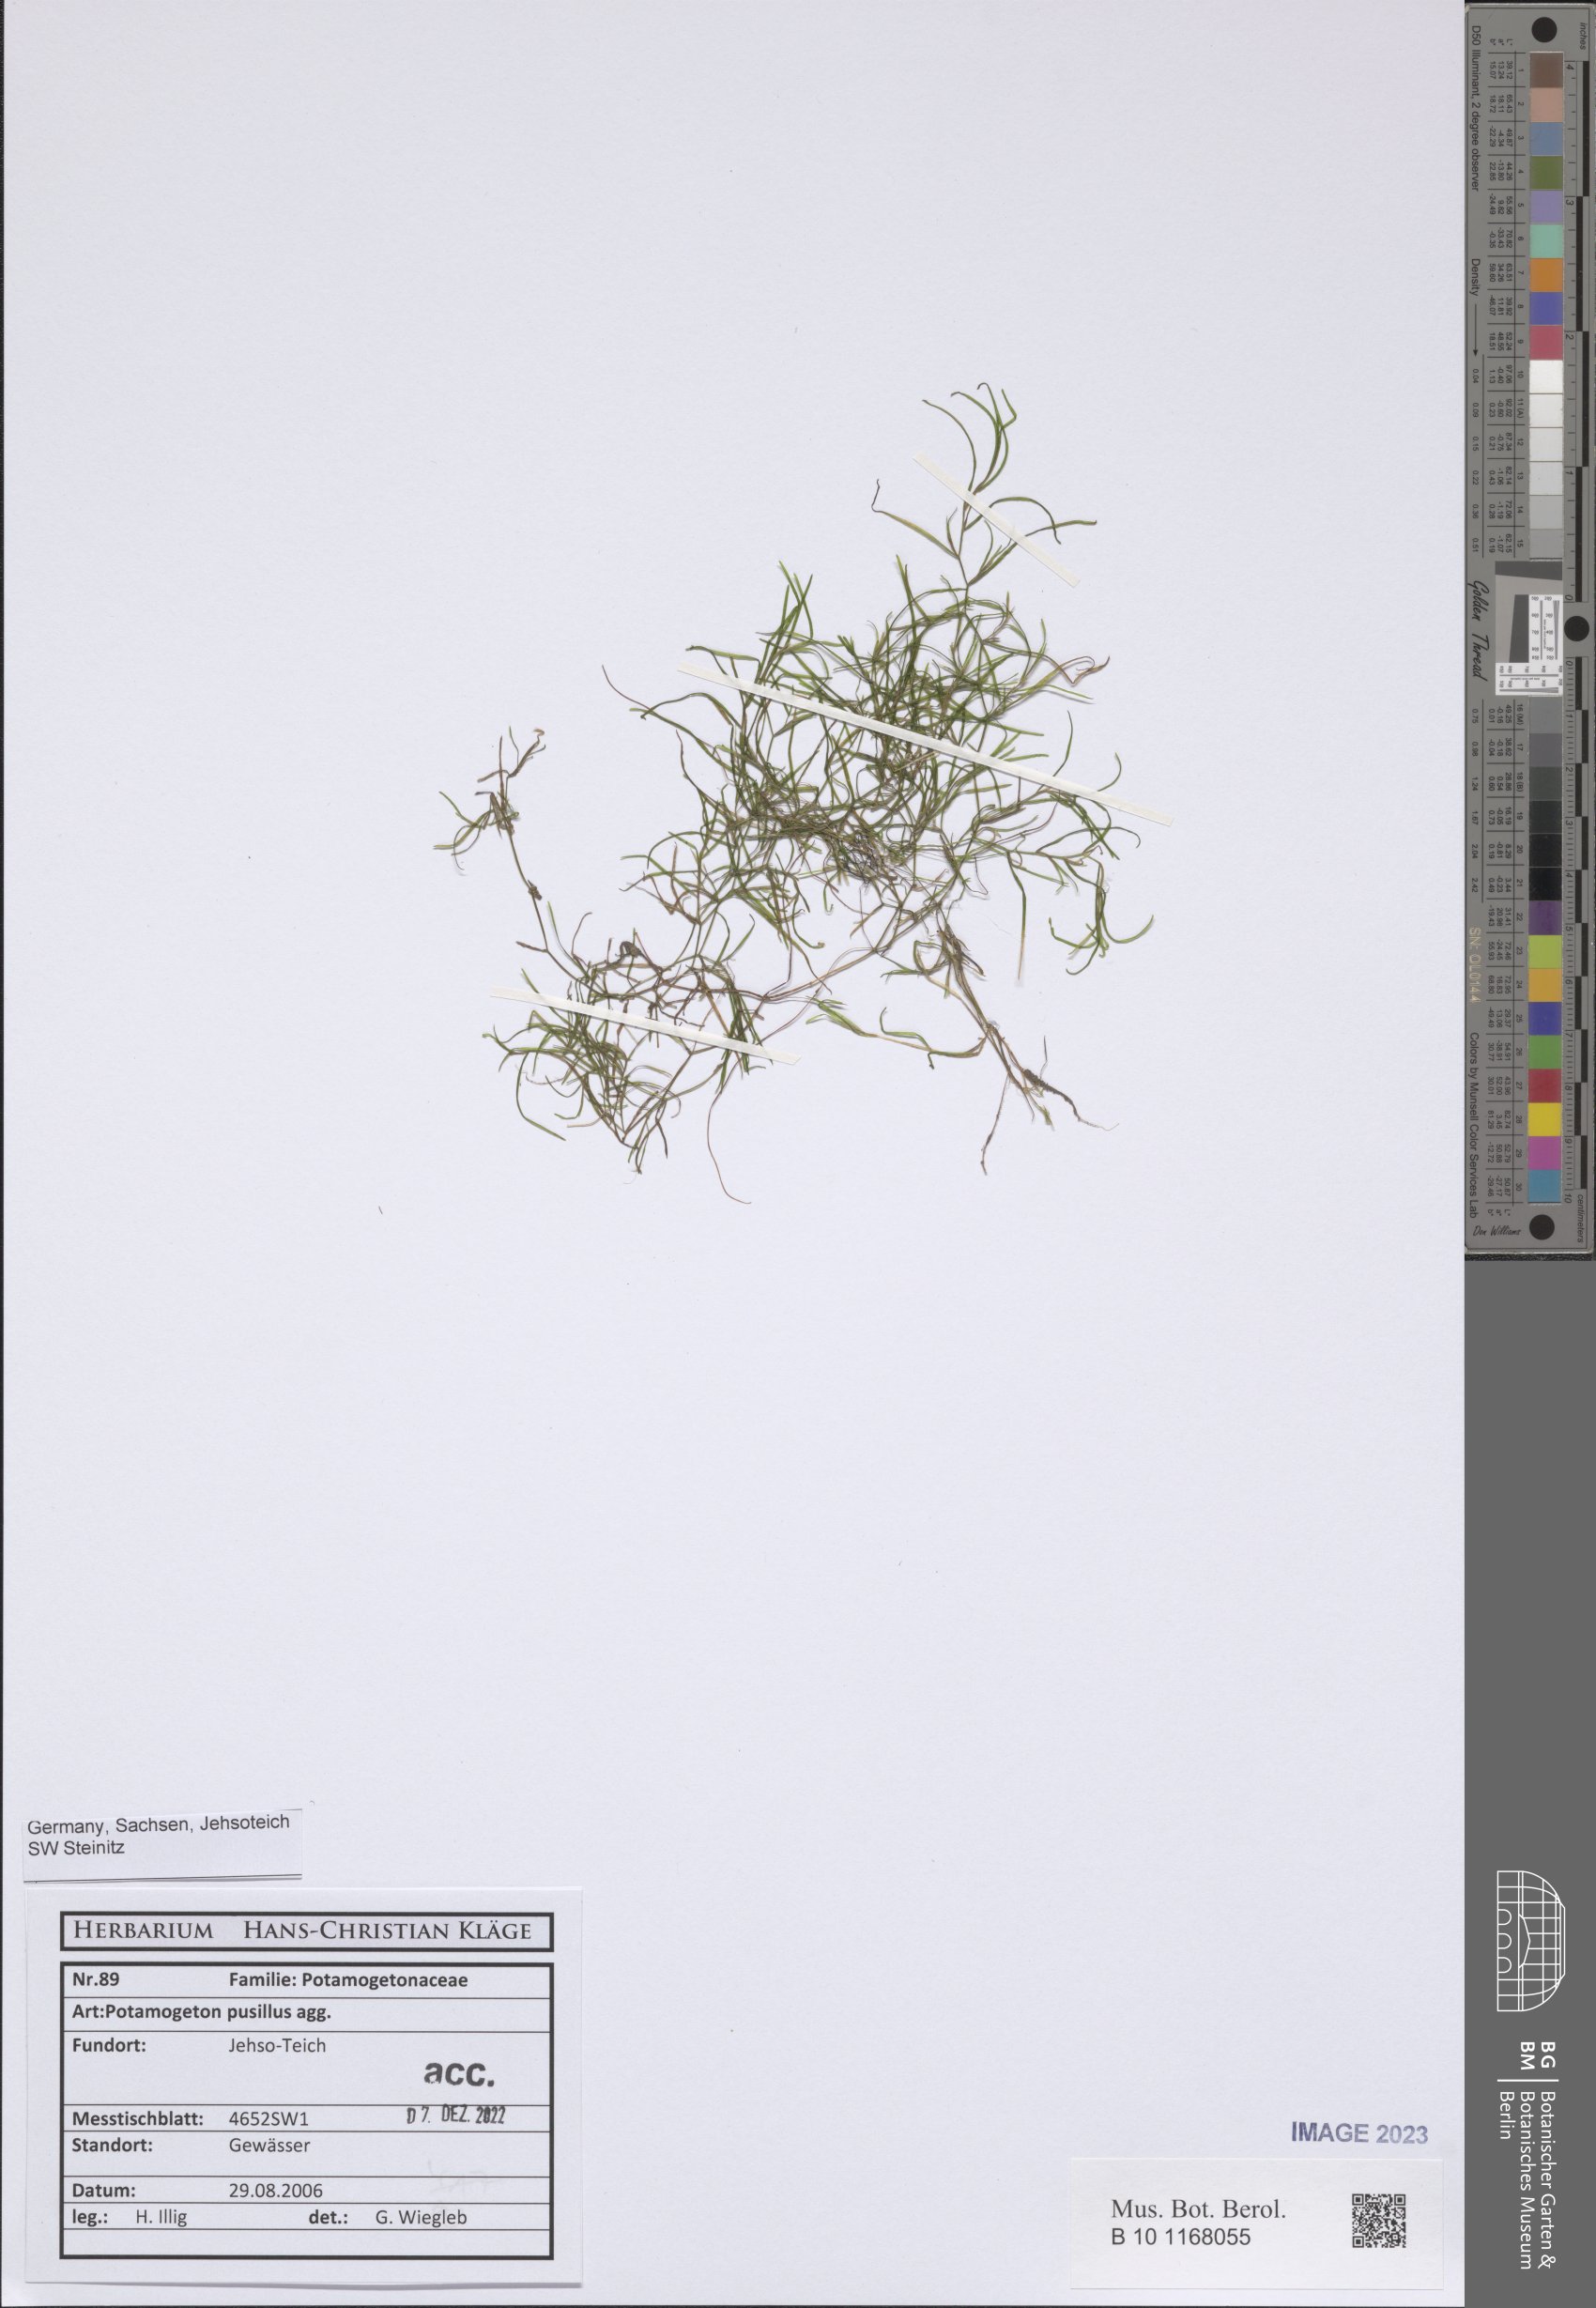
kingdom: Plantae
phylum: Tracheophyta
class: Liliopsida
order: Alismatales
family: Potamogetonaceae
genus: Potamogeton
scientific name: Potamogeton pusillus
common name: Lesser pondweed
